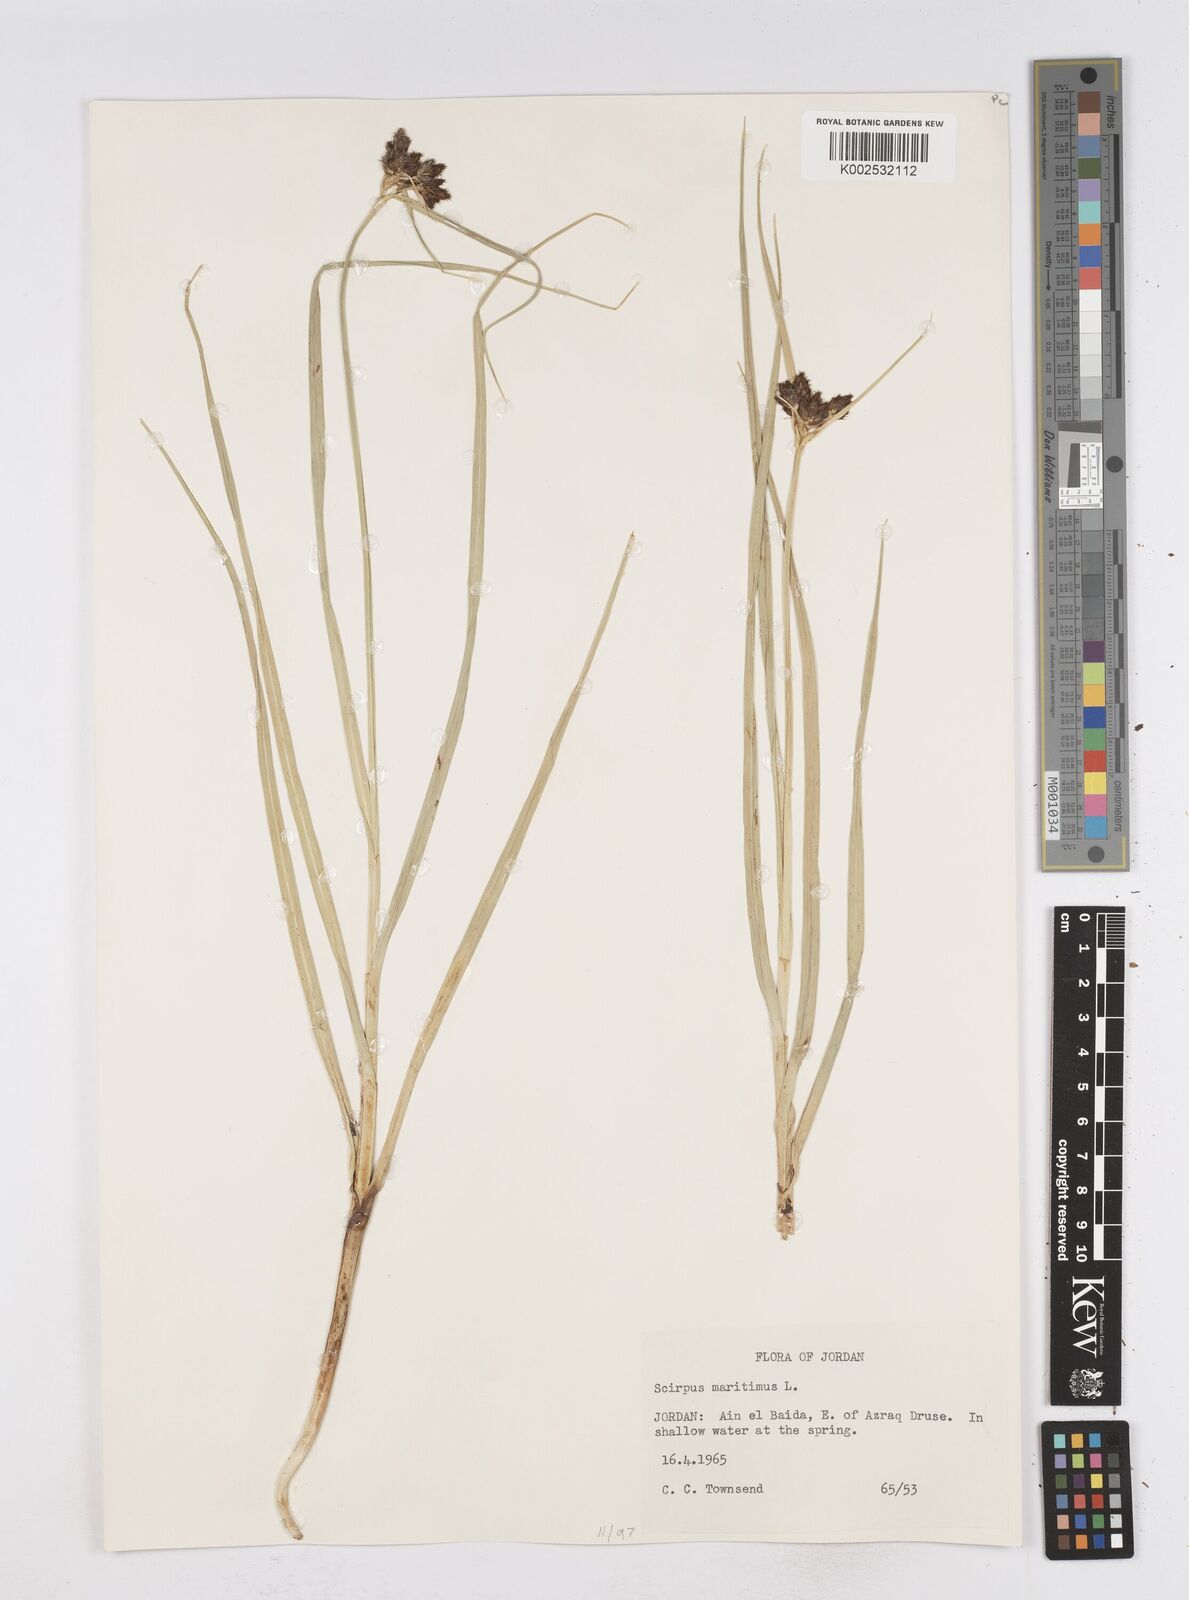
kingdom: Plantae
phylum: Tracheophyta
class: Liliopsida
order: Poales
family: Cyperaceae
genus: Bolboschoenus
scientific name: Bolboschoenus maritimus
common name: Sea club-rush
